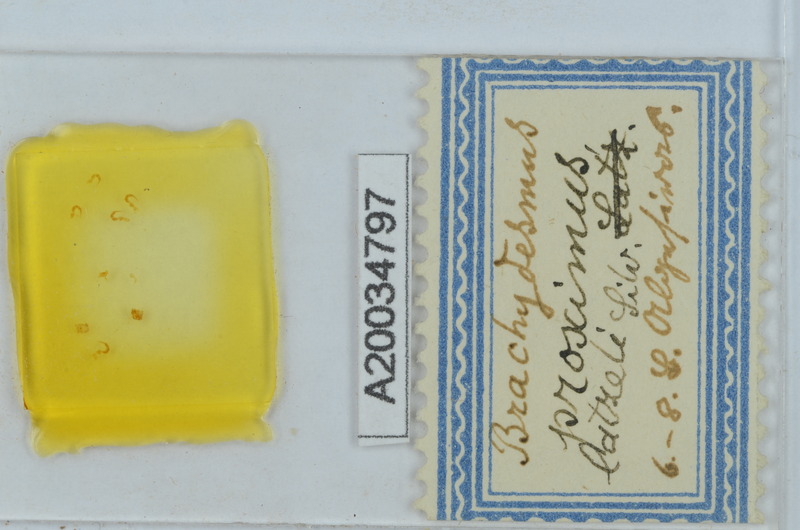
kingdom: Animalia
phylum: Arthropoda
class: Diplopoda
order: Polydesmida
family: Polydesmidae
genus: Brachydesmus
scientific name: Brachydesmus proximus
